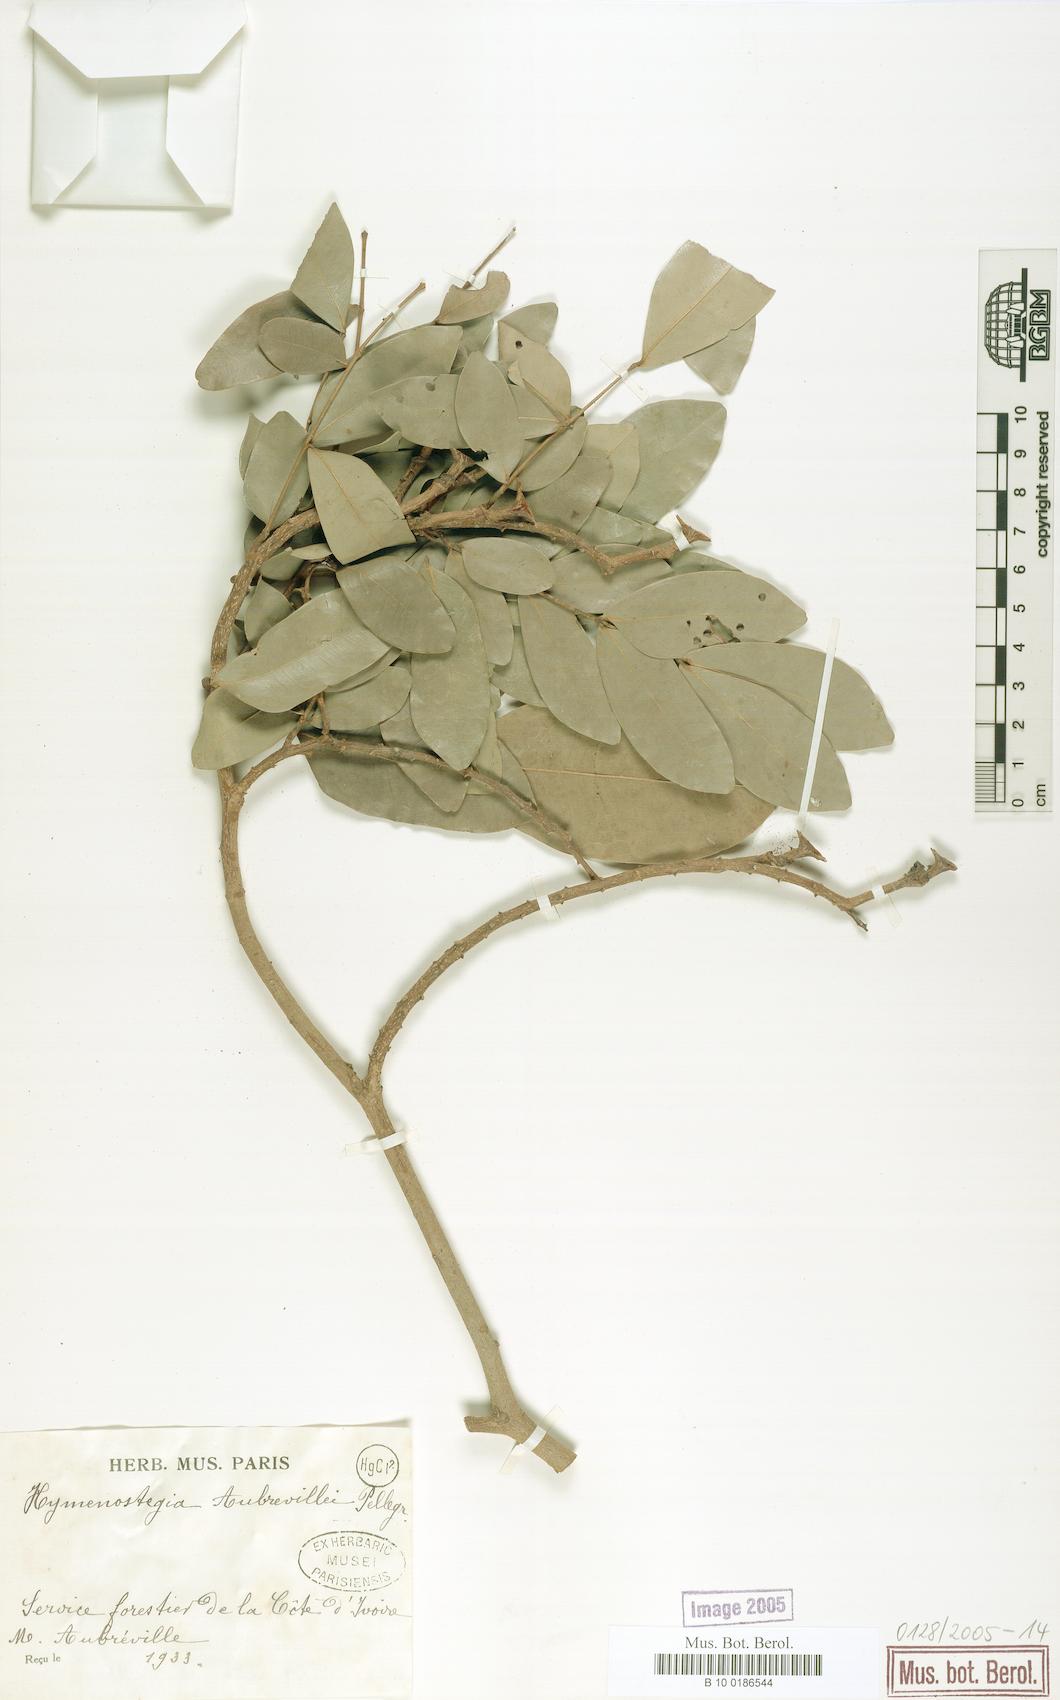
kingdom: Plantae
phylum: Tracheophyta
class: Magnoliopsida
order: Fabales
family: Fabaceae
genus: Hymenostegia
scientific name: Hymenostegia aubrevillei
